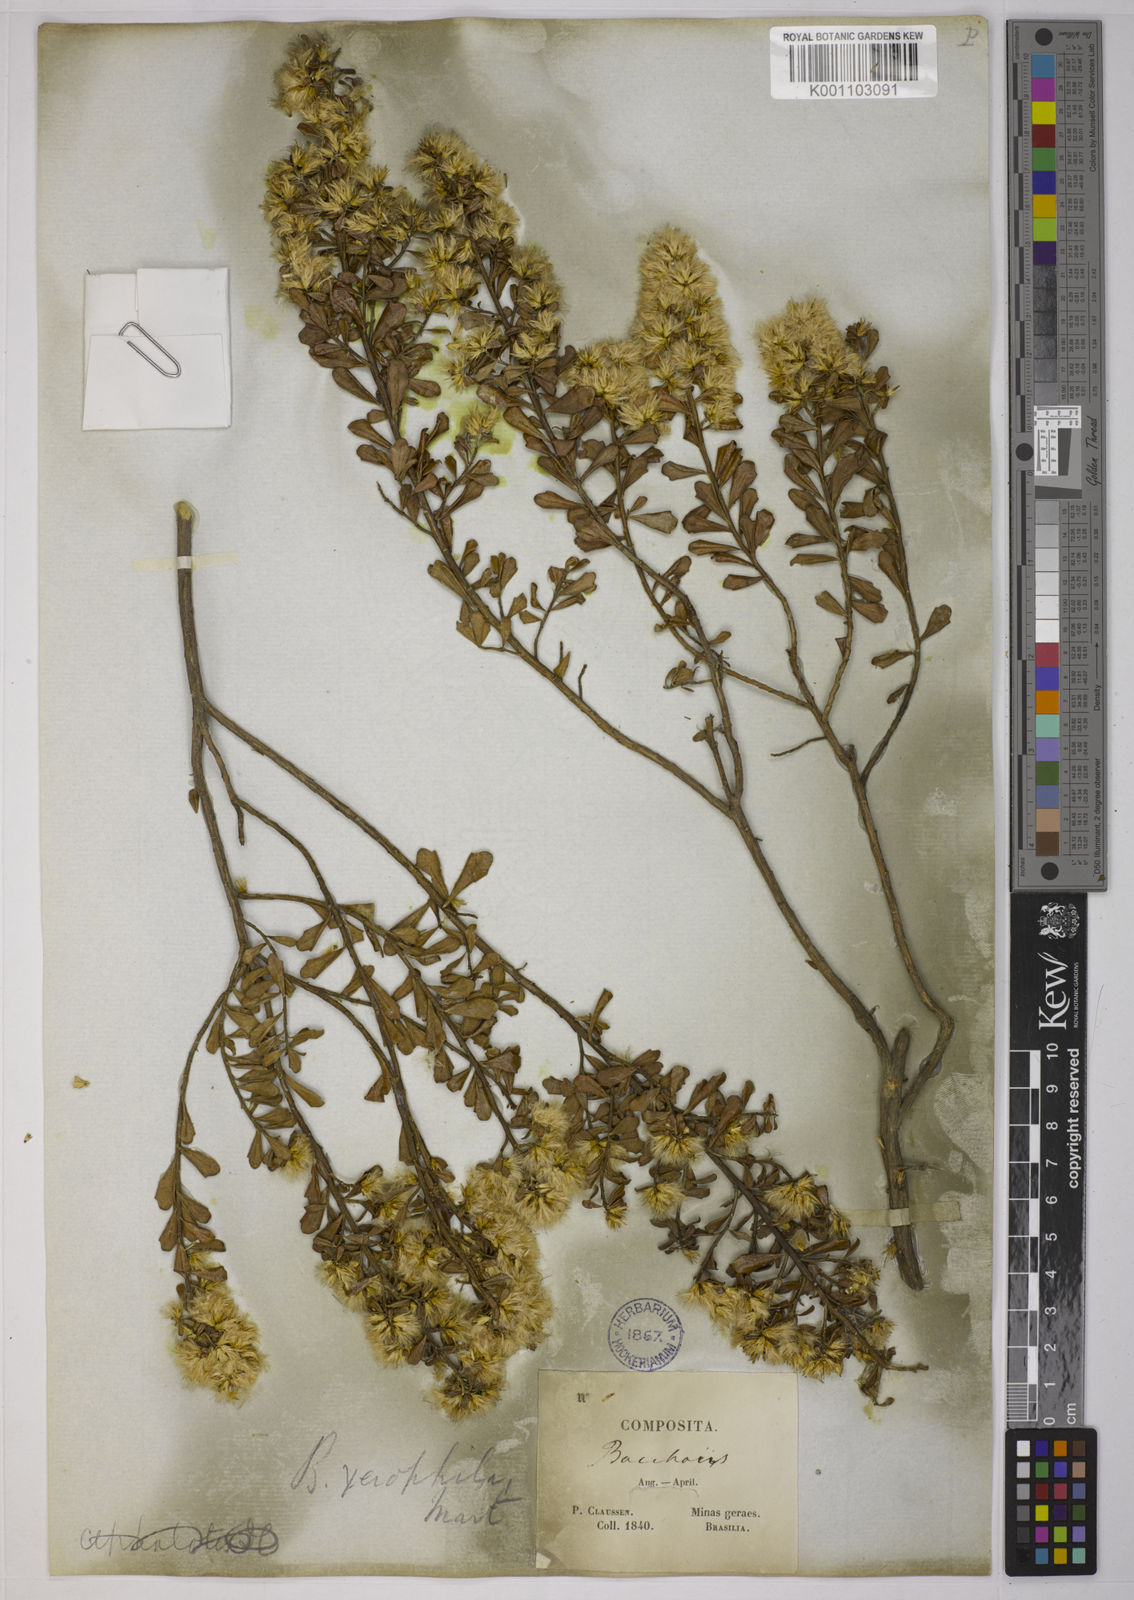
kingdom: Plantae
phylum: Tracheophyta
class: Magnoliopsida
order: Asterales
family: Asteraceae
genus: Baccharis
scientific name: Baccharis sessiliflora
